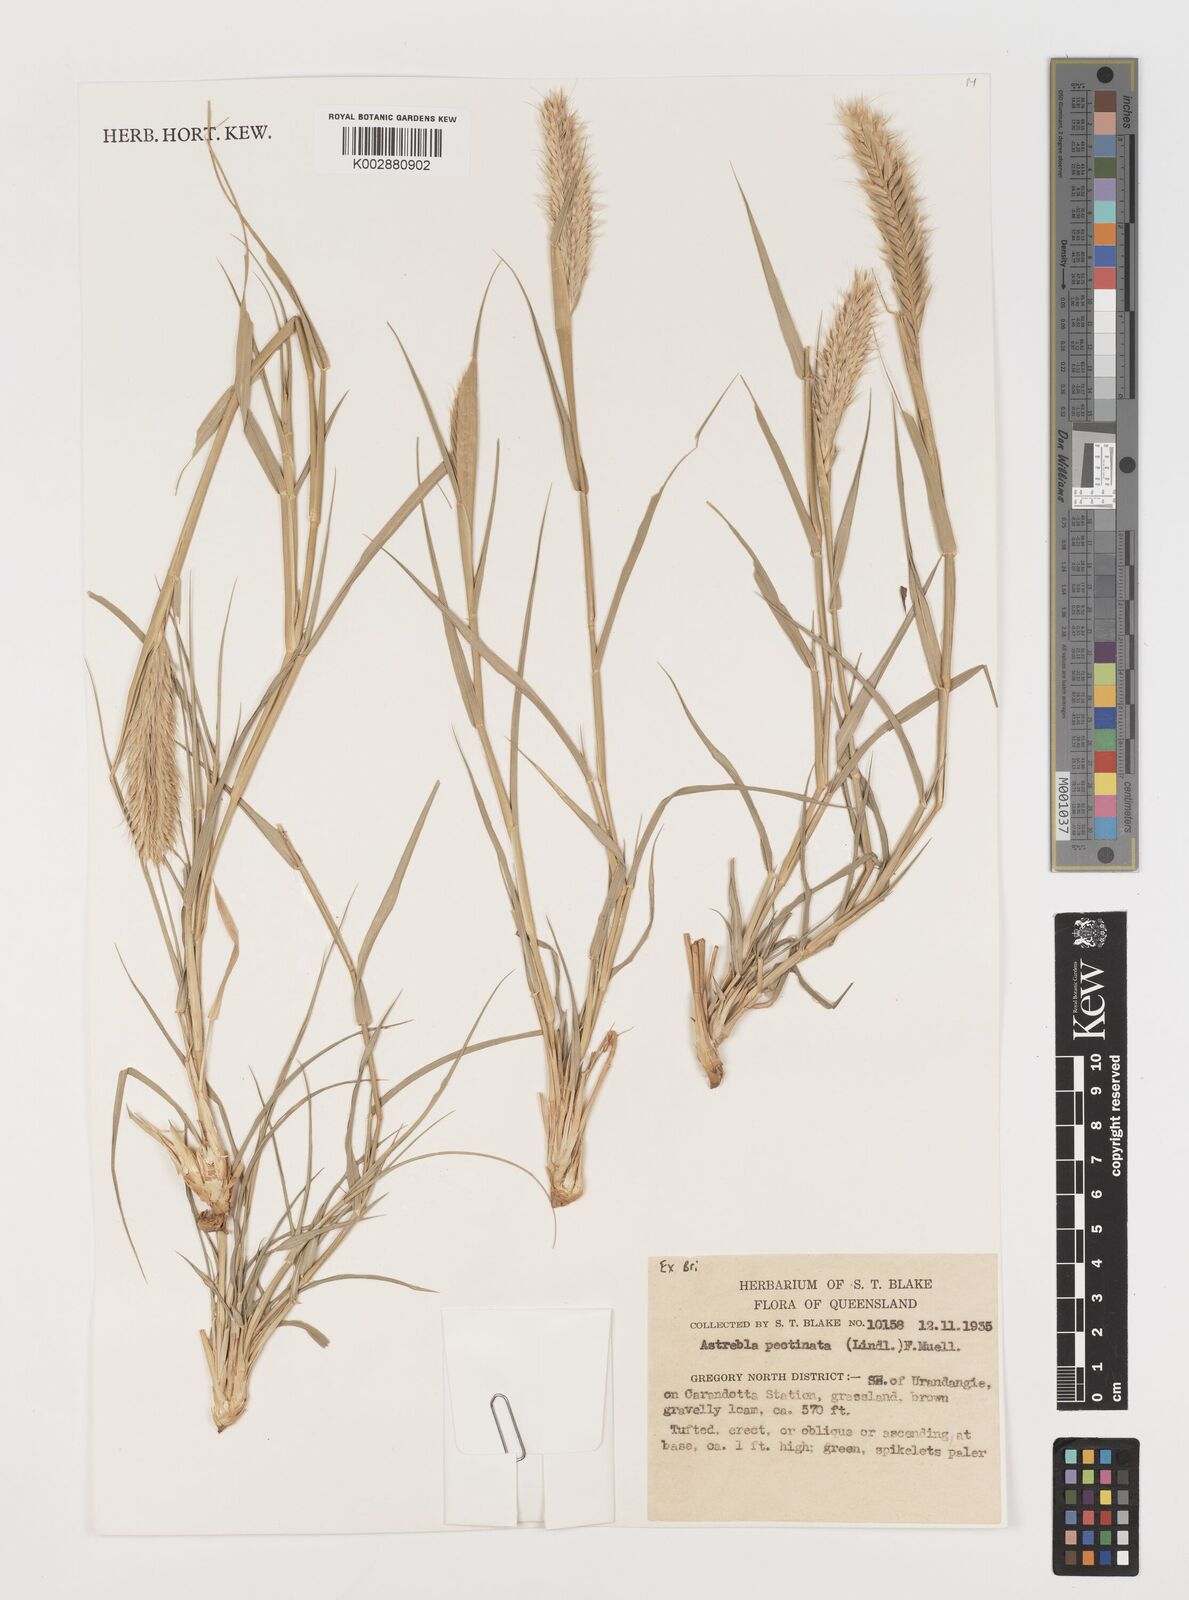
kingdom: Plantae
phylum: Tracheophyta
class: Liliopsida
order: Poales
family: Poaceae
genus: Astrebla
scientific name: Astrebla pectinata
